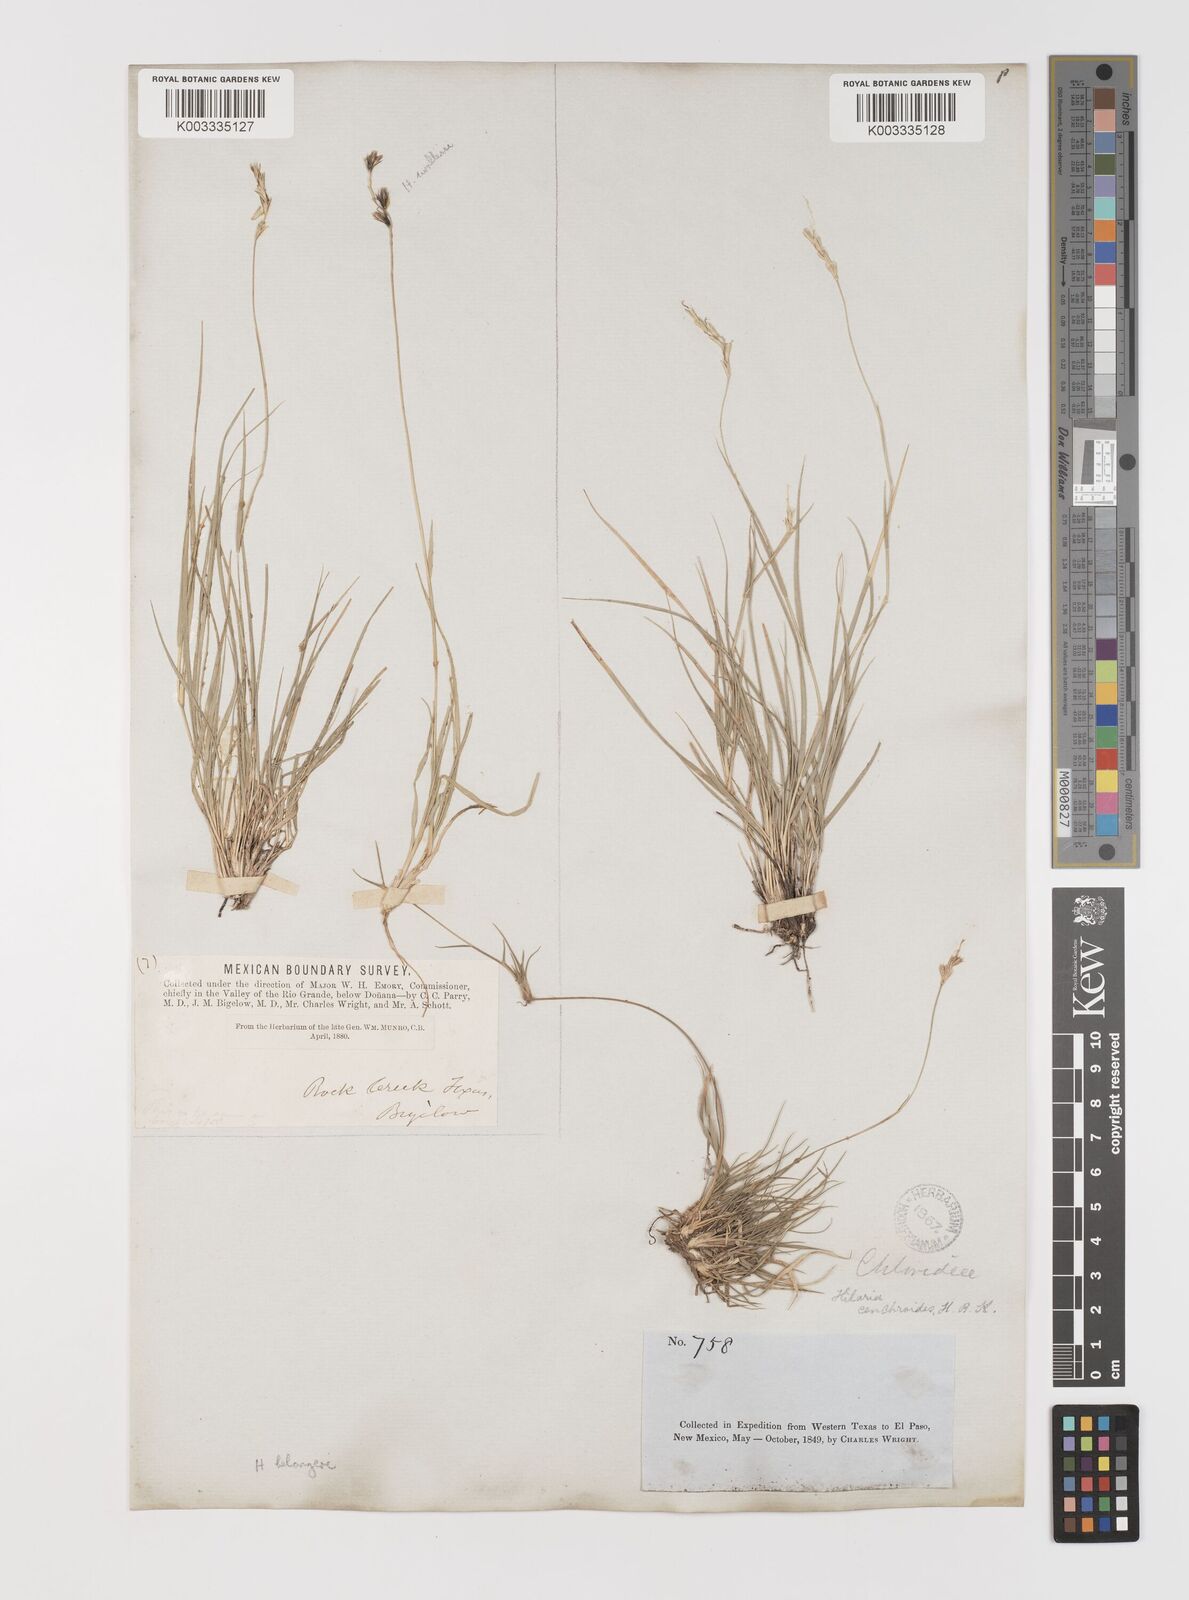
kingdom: Plantae
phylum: Tracheophyta
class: Liliopsida
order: Poales
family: Poaceae
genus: Hilaria
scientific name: Hilaria belangeri
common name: Curly-mesquite
